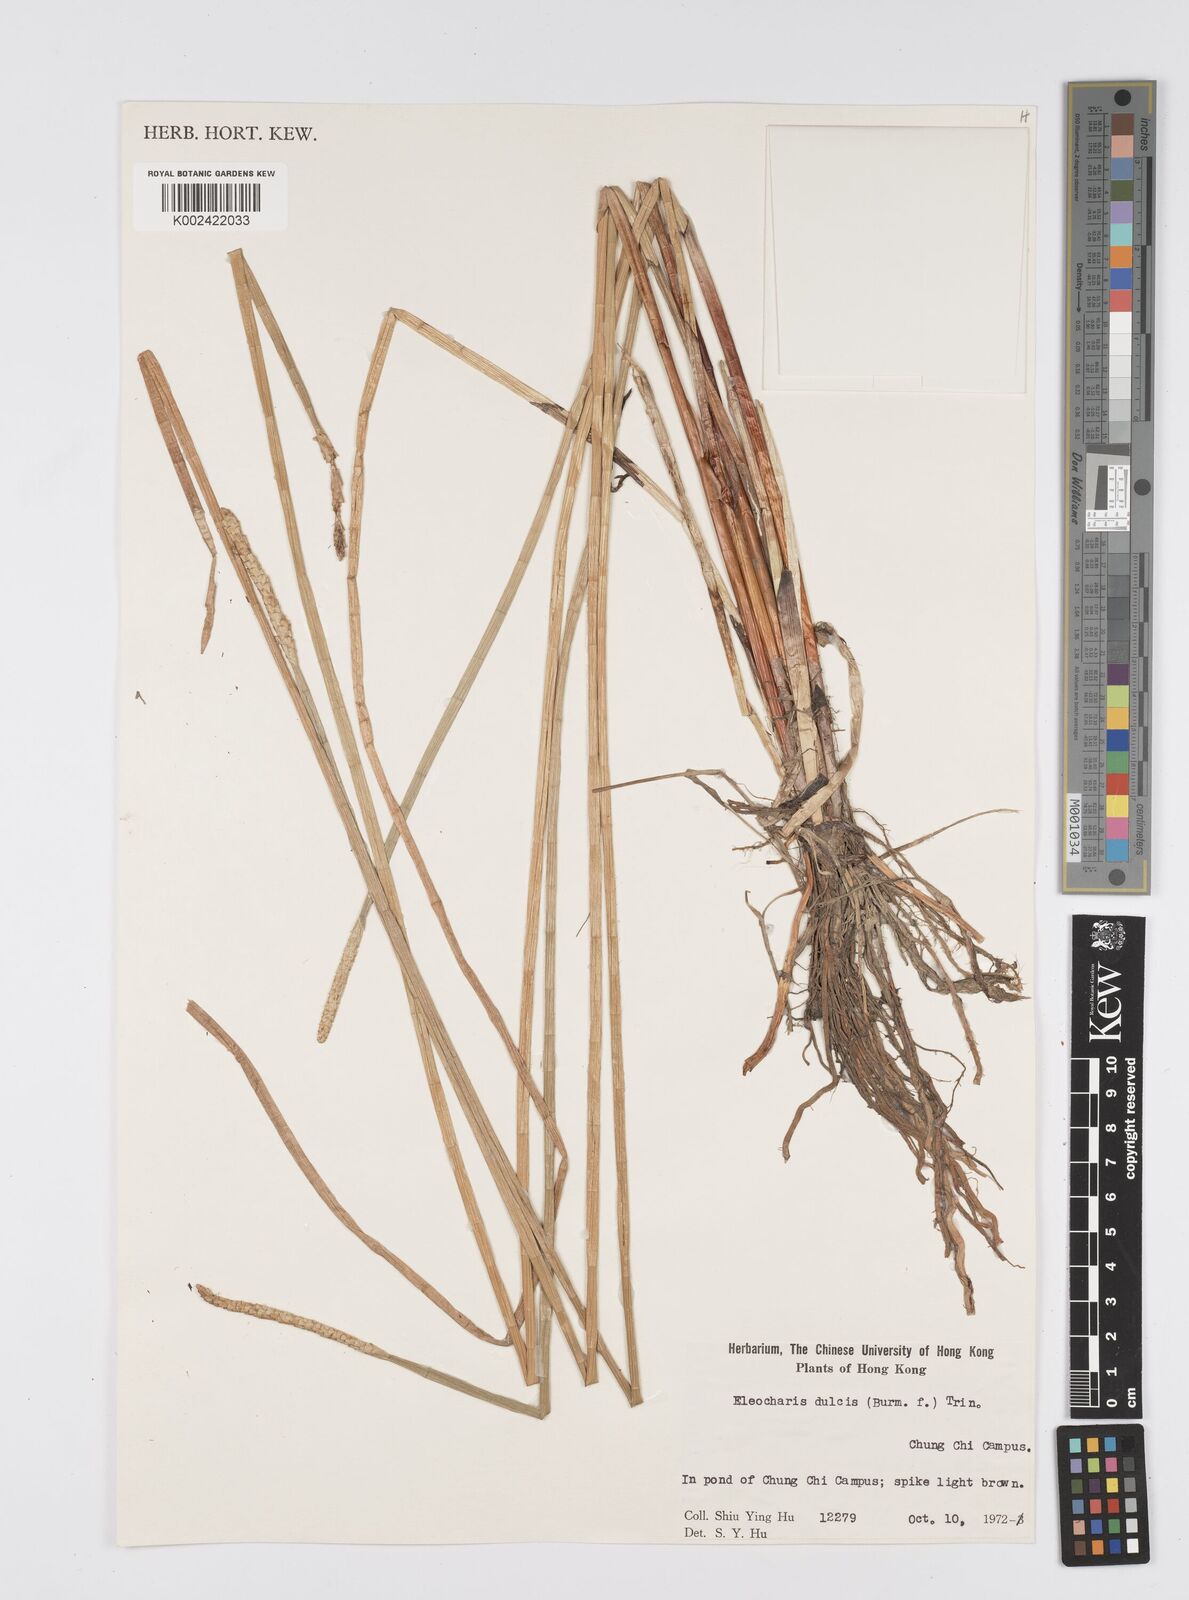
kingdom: Plantae
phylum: Tracheophyta
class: Liliopsida
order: Poales
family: Cyperaceae
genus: Eleocharis
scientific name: Eleocharis dulcis
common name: Chinese water chestnut
